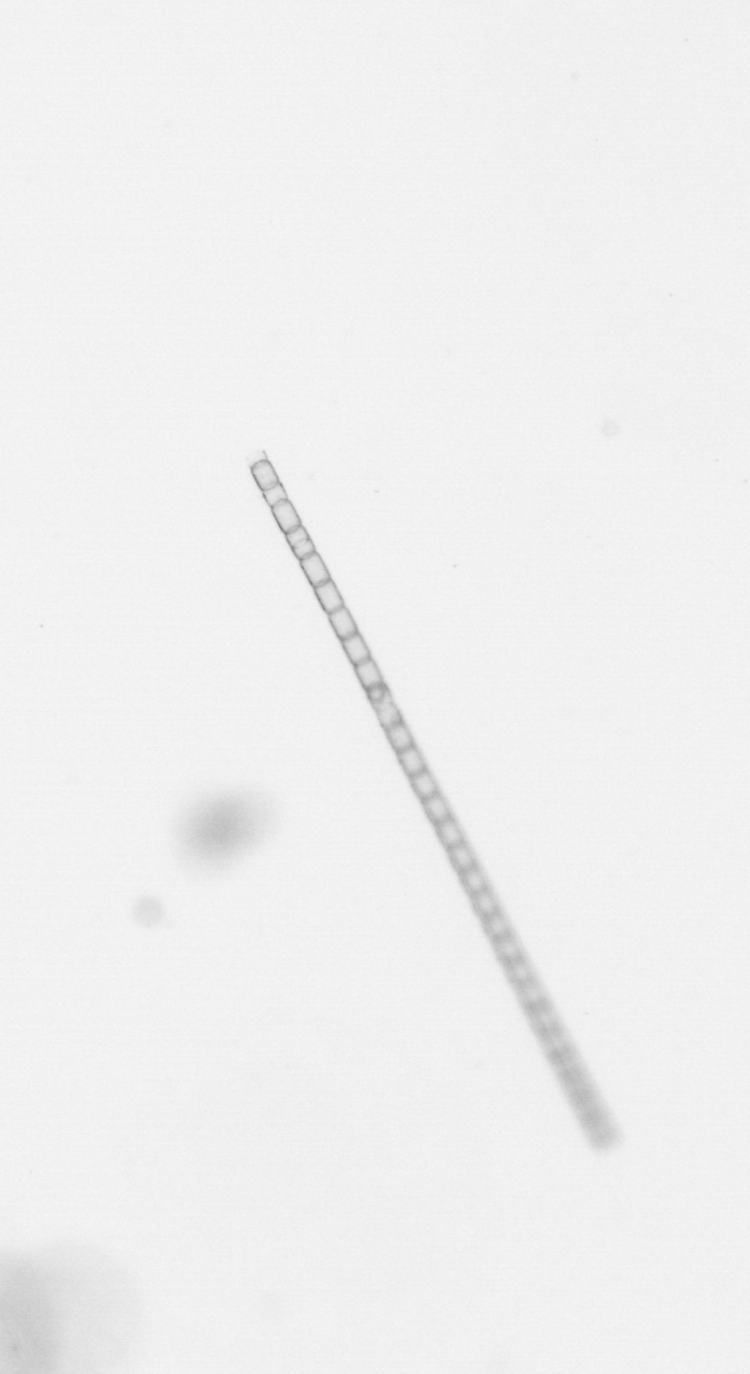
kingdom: Chromista
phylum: Ochrophyta
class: Bacillariophyceae
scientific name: Bacillariophyceae
